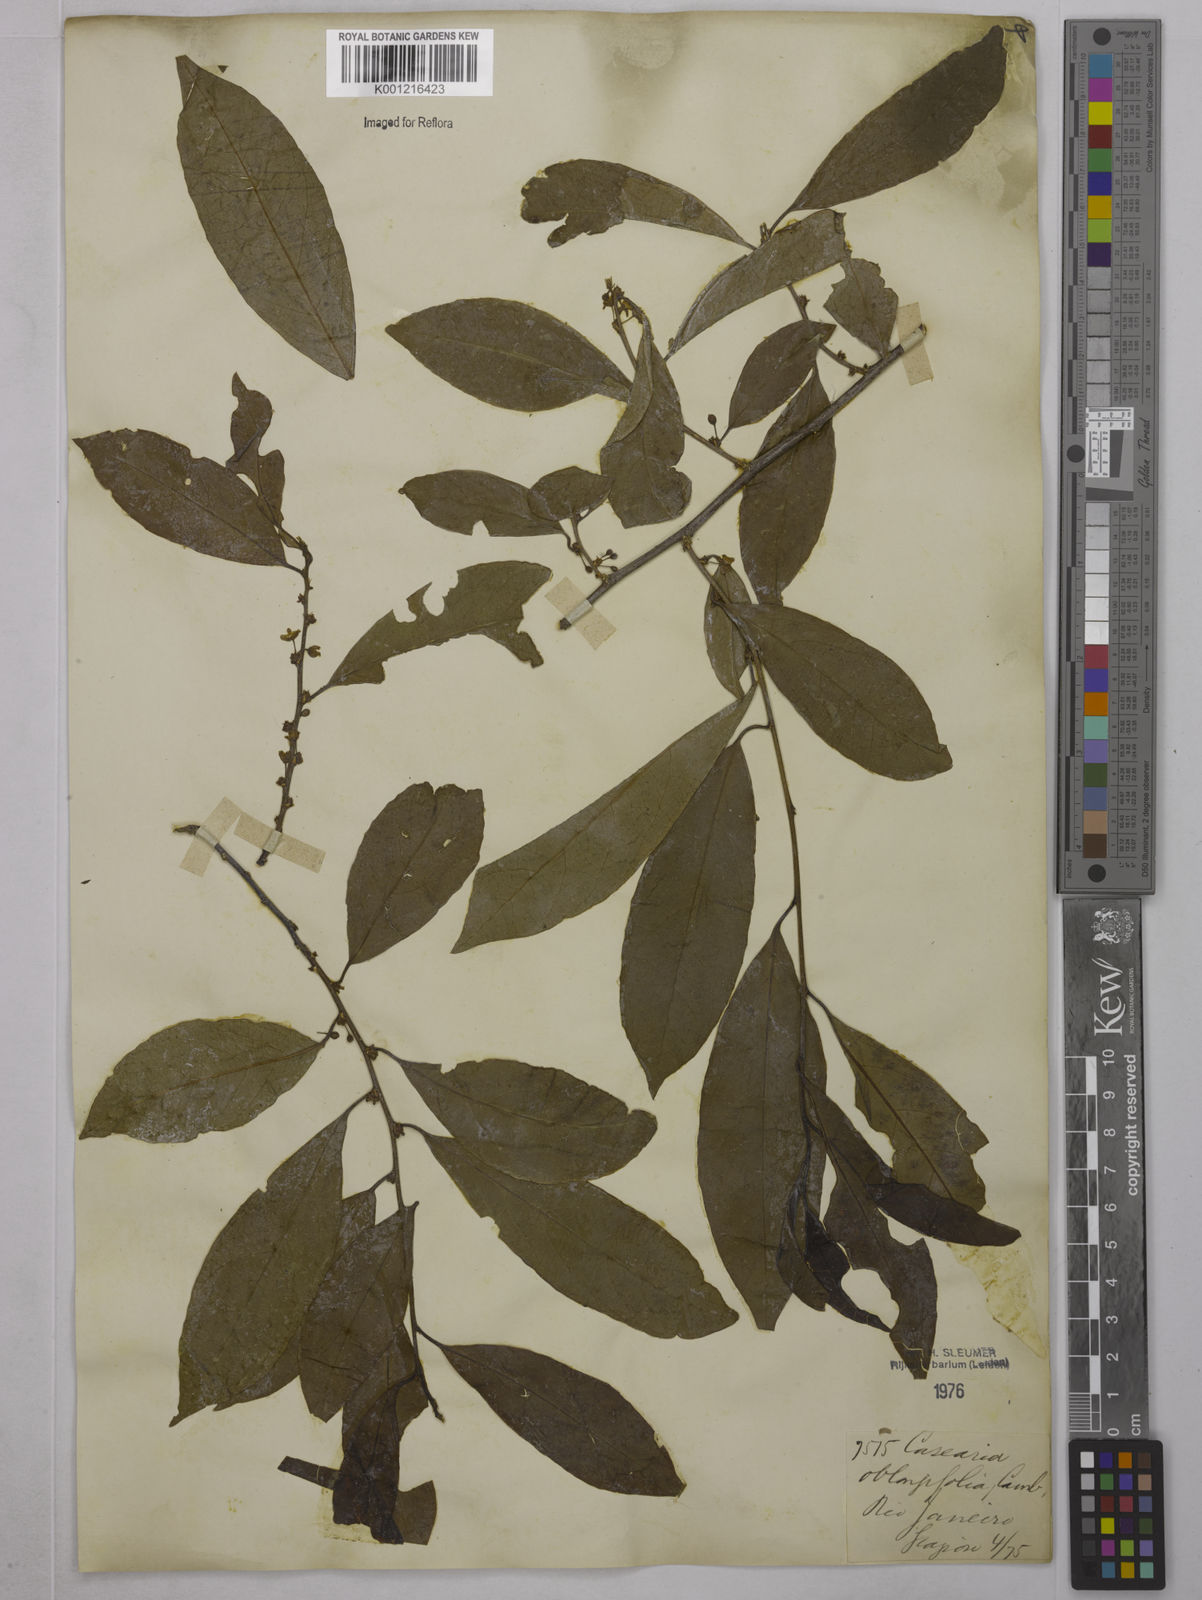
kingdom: Plantae
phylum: Tracheophyta
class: Magnoliopsida
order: Malpighiales
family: Salicaceae
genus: Casearia
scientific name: Casearia oblongifolia
